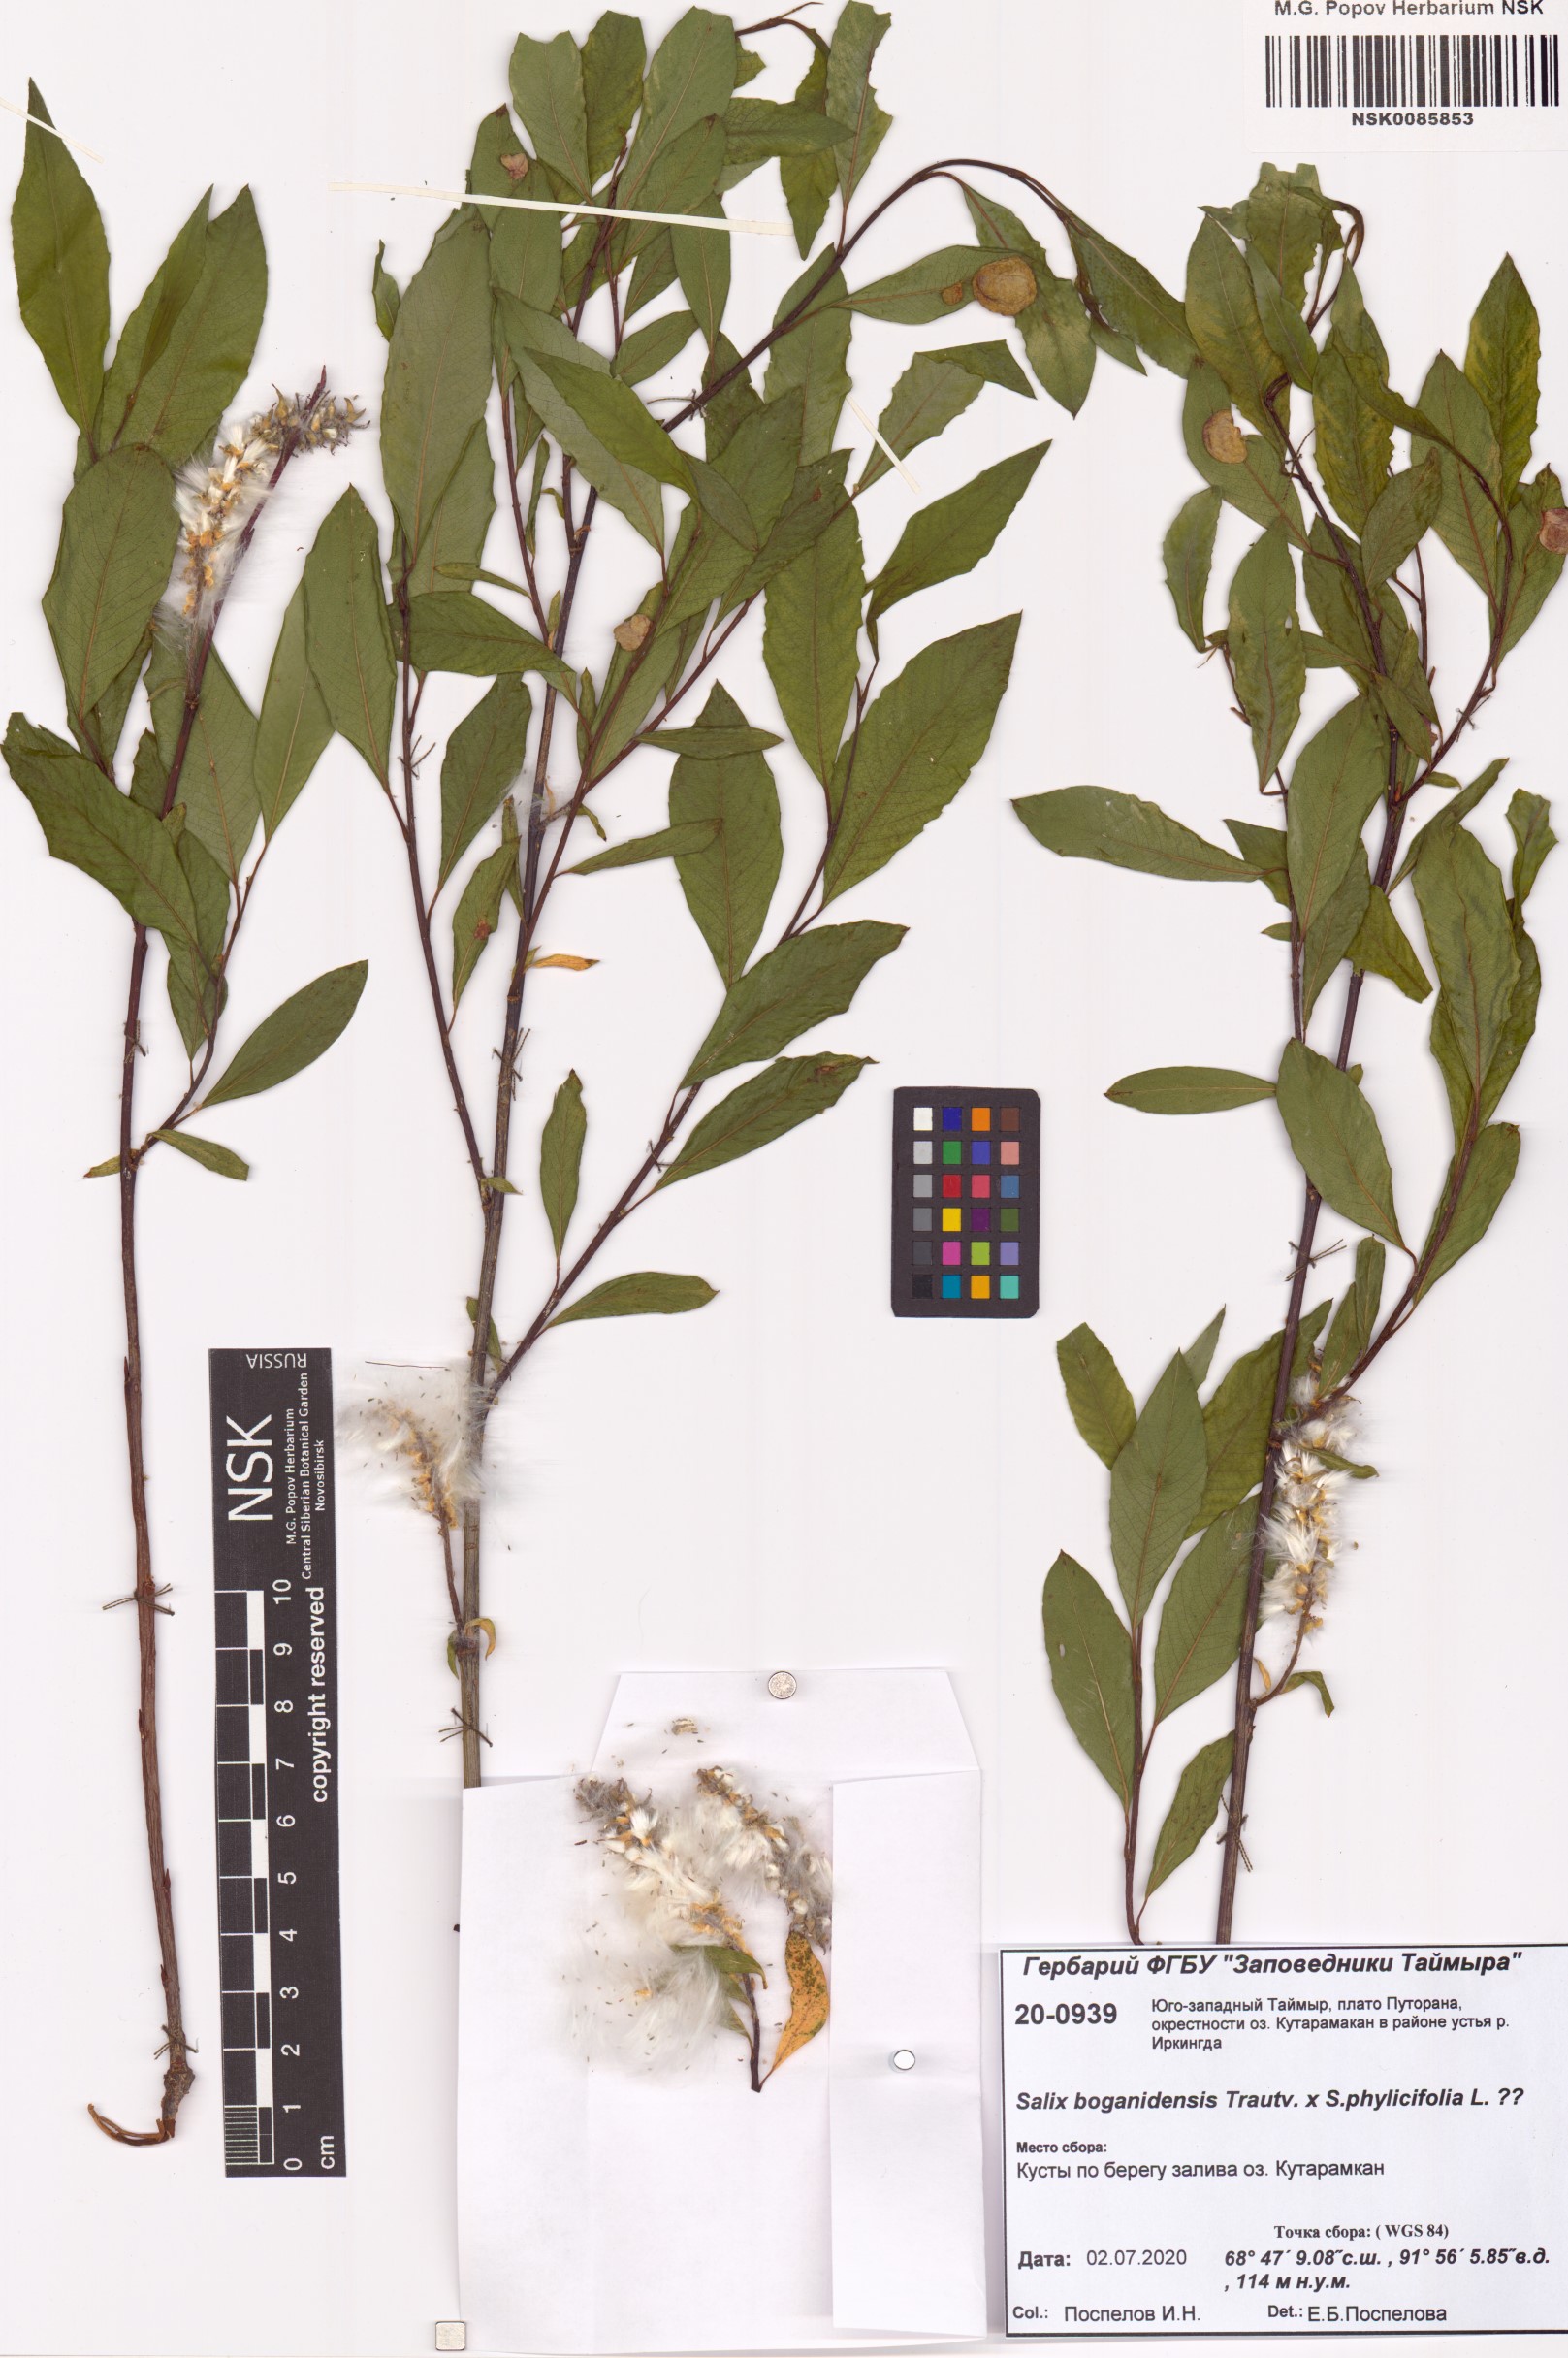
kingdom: Plantae
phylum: Tracheophyta
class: Magnoliopsida
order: Malpighiales
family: Salicaceae
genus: Salix
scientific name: Salix
